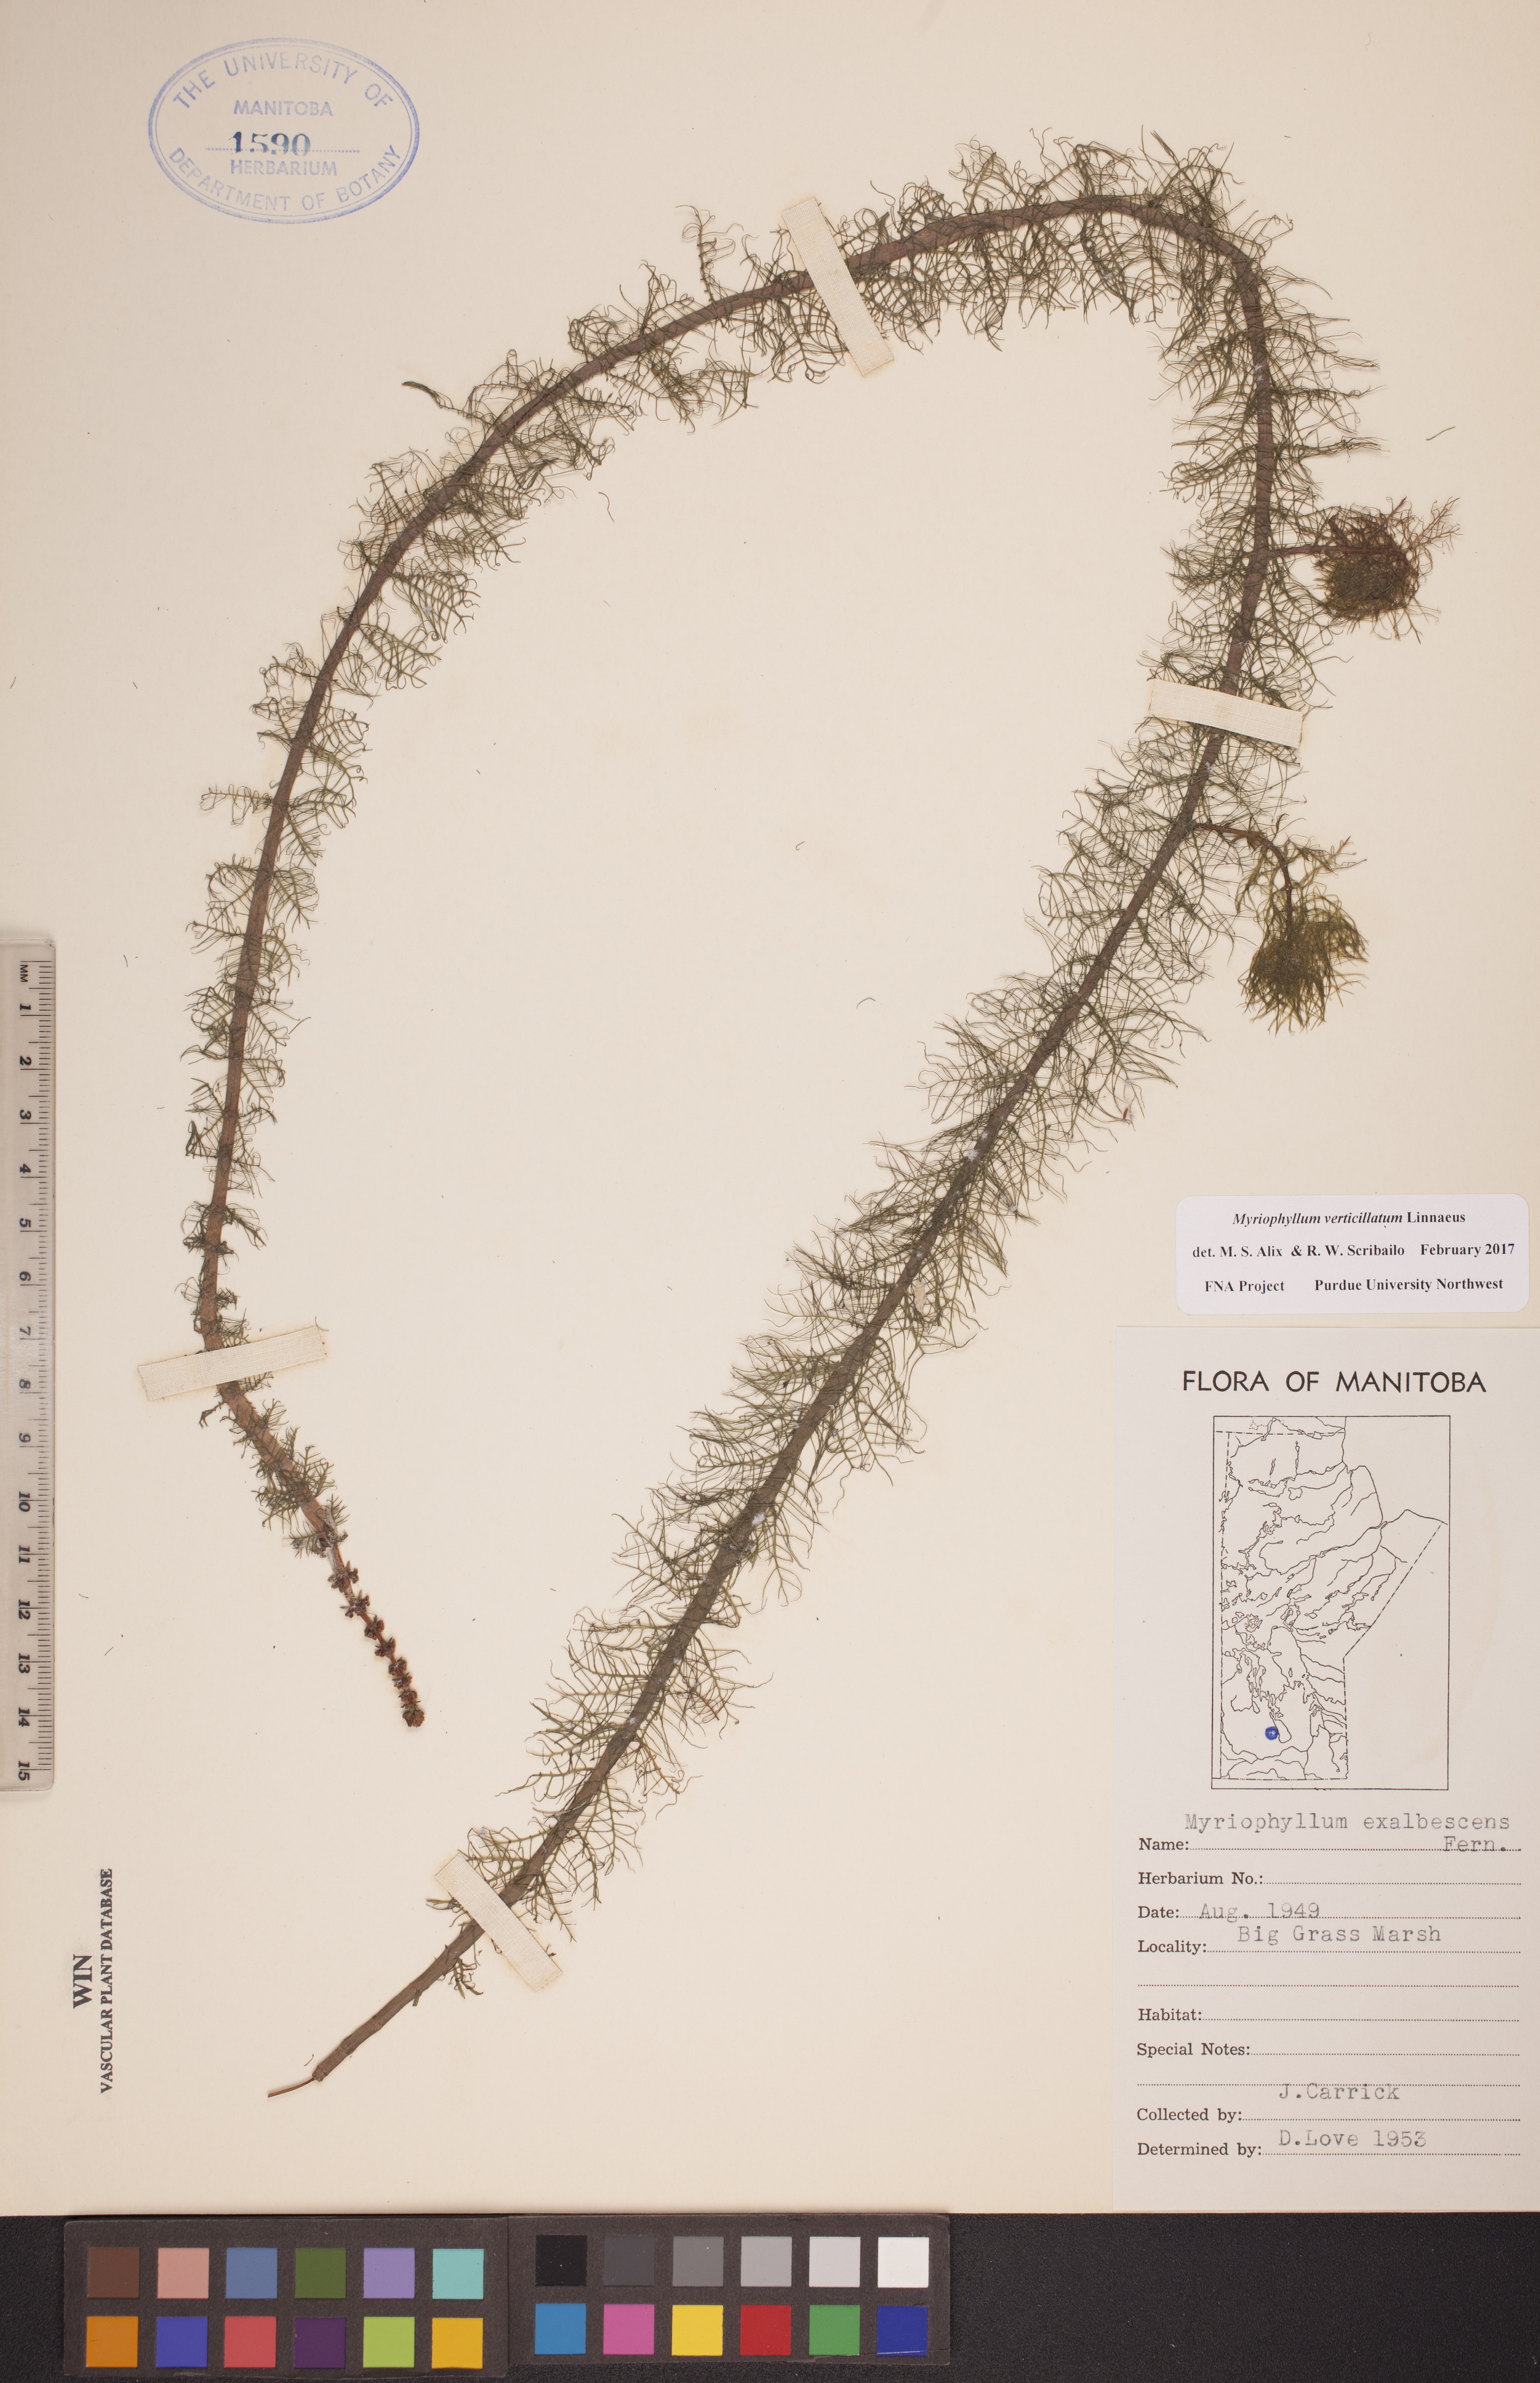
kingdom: Plantae
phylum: Tracheophyta
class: Magnoliopsida
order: Saxifragales
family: Haloragaceae
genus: Myriophyllum
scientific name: Myriophyllum verticillatum
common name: Whorled water-milfoil
